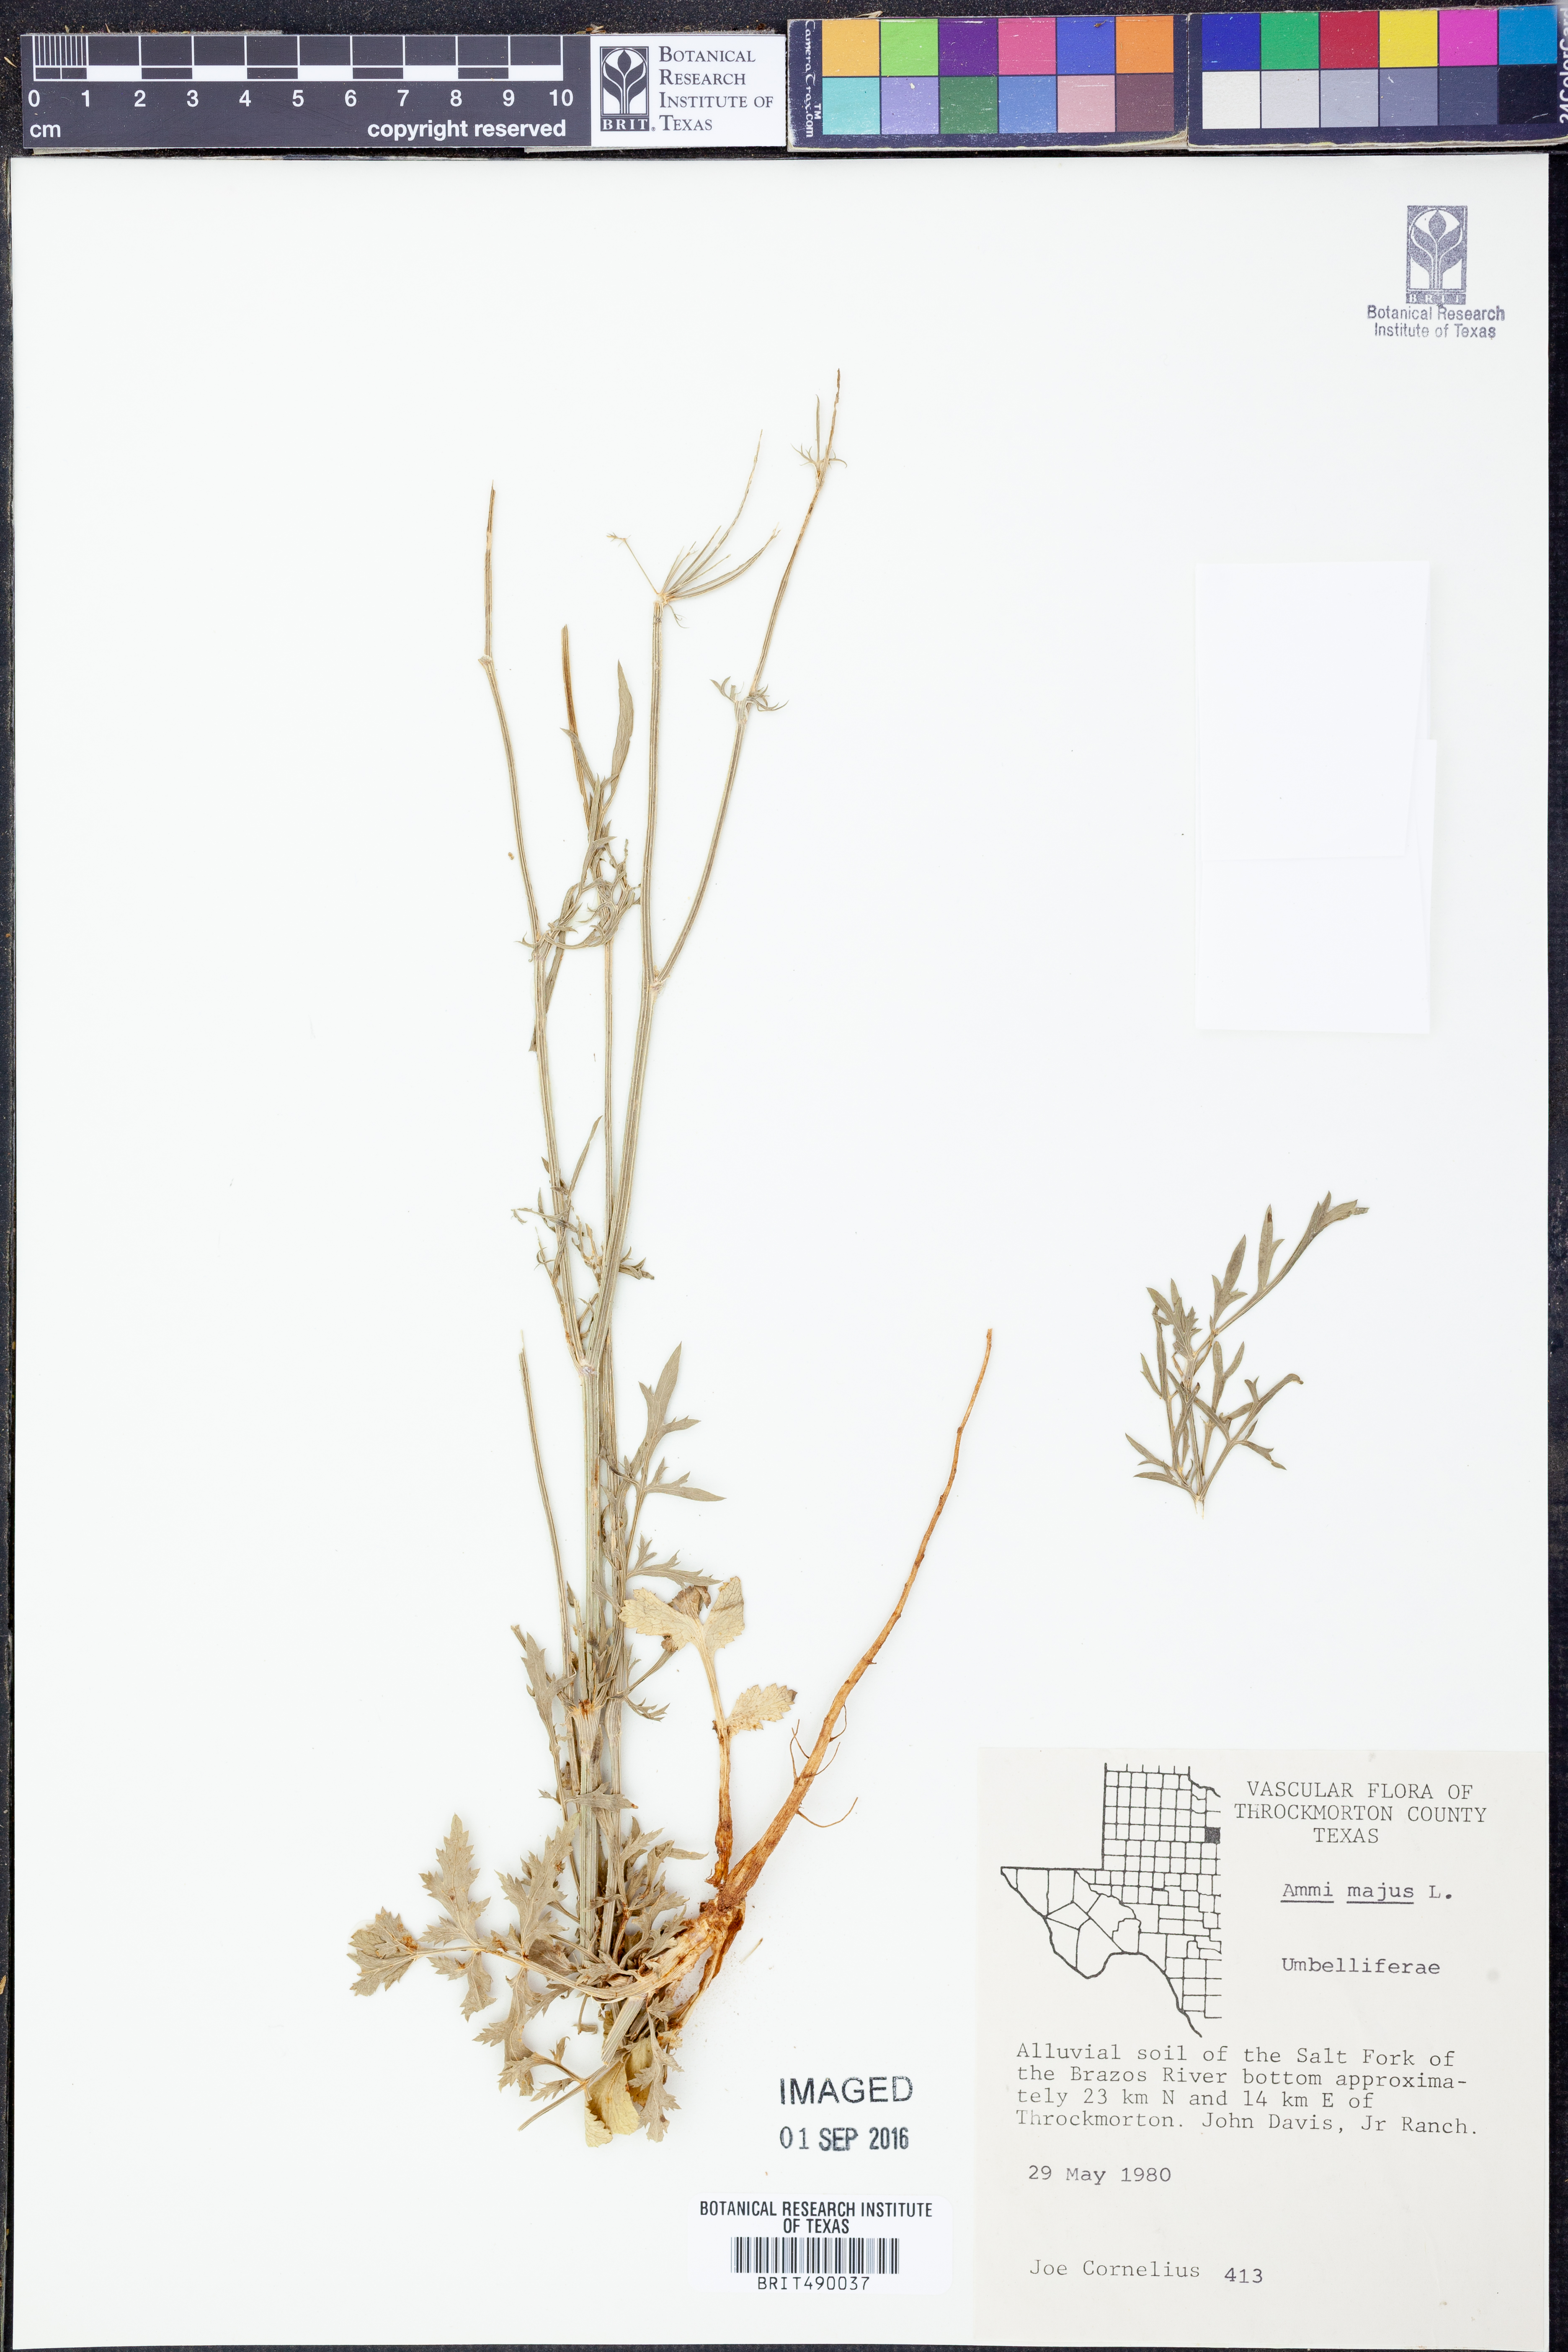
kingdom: Plantae
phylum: Tracheophyta
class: Magnoliopsida
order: Apiales
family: Apiaceae
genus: Ammi
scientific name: Ammi majus
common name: Bullwort
